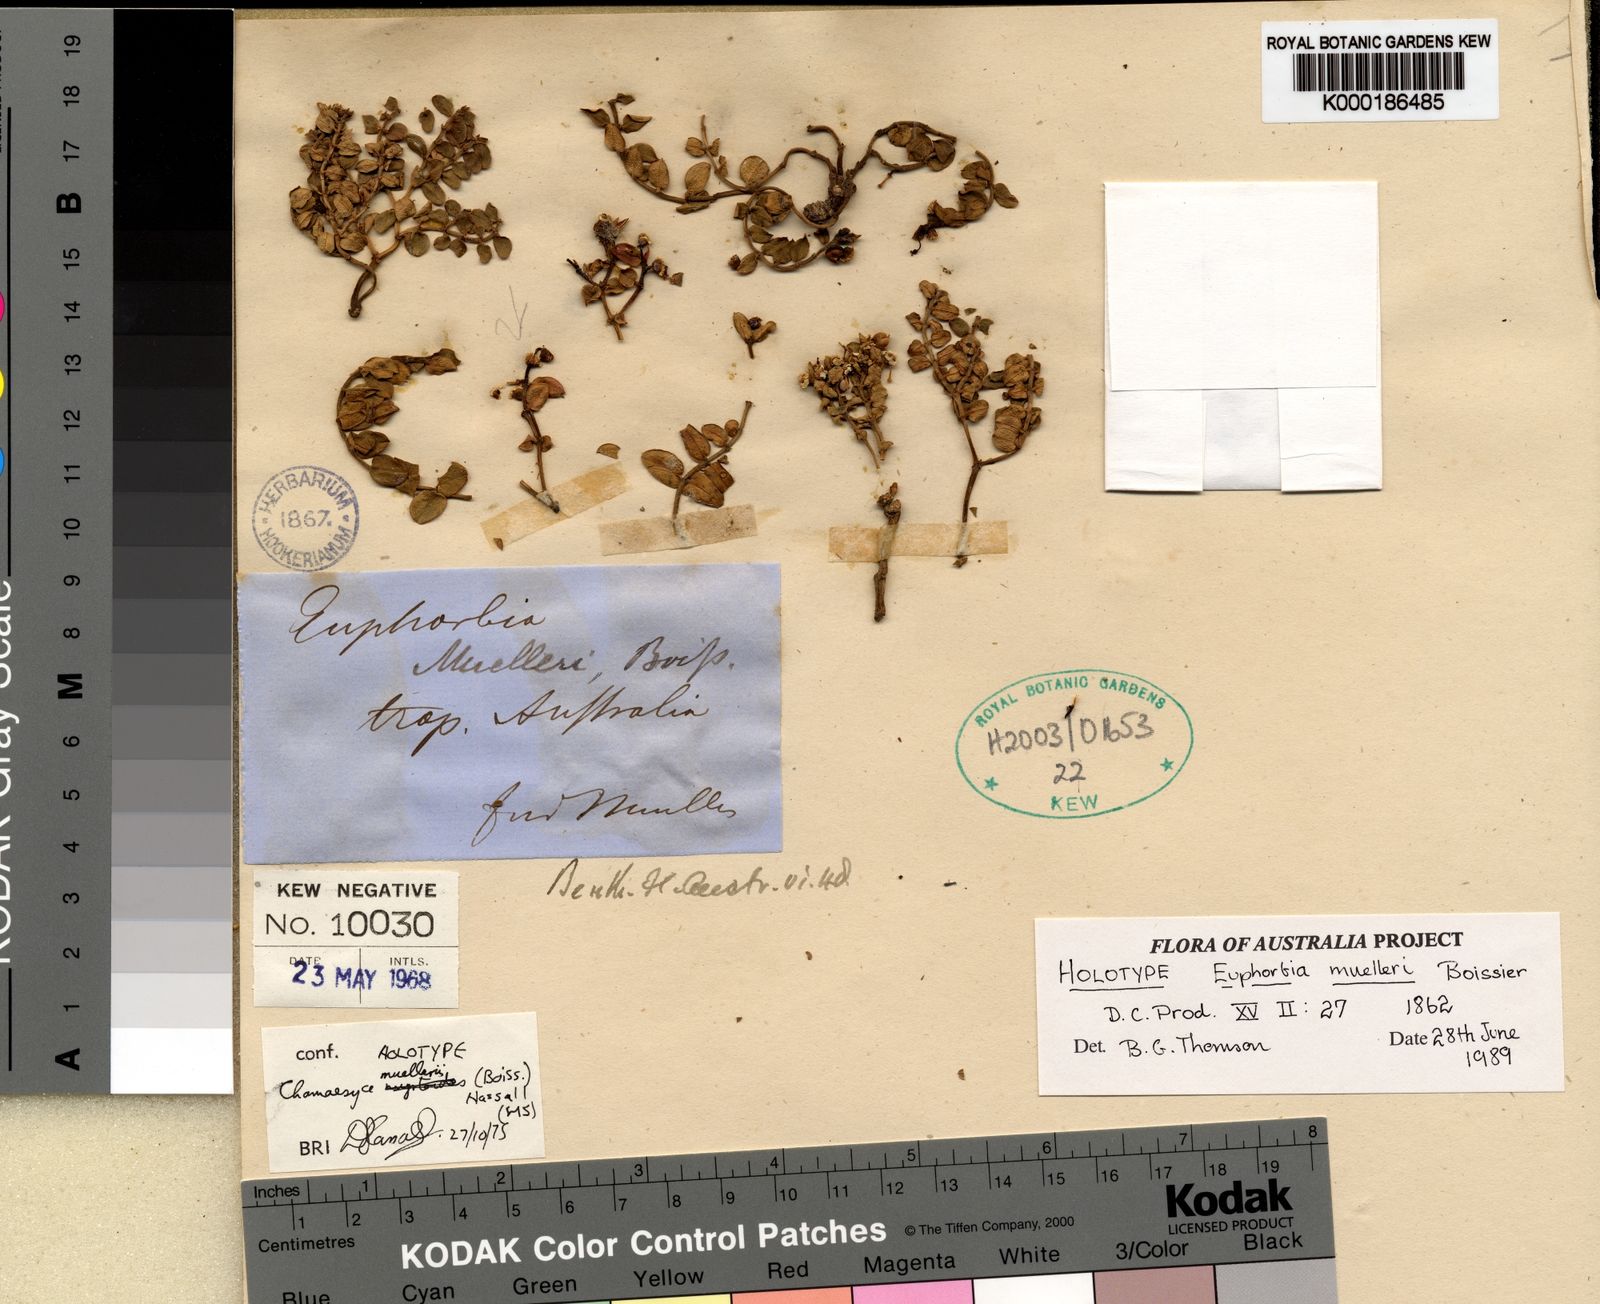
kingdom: Plantae
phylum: Tracheophyta
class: Magnoliopsida
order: Malpighiales
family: Euphorbiaceae
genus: Euphorbia
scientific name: Euphorbia muelleri
